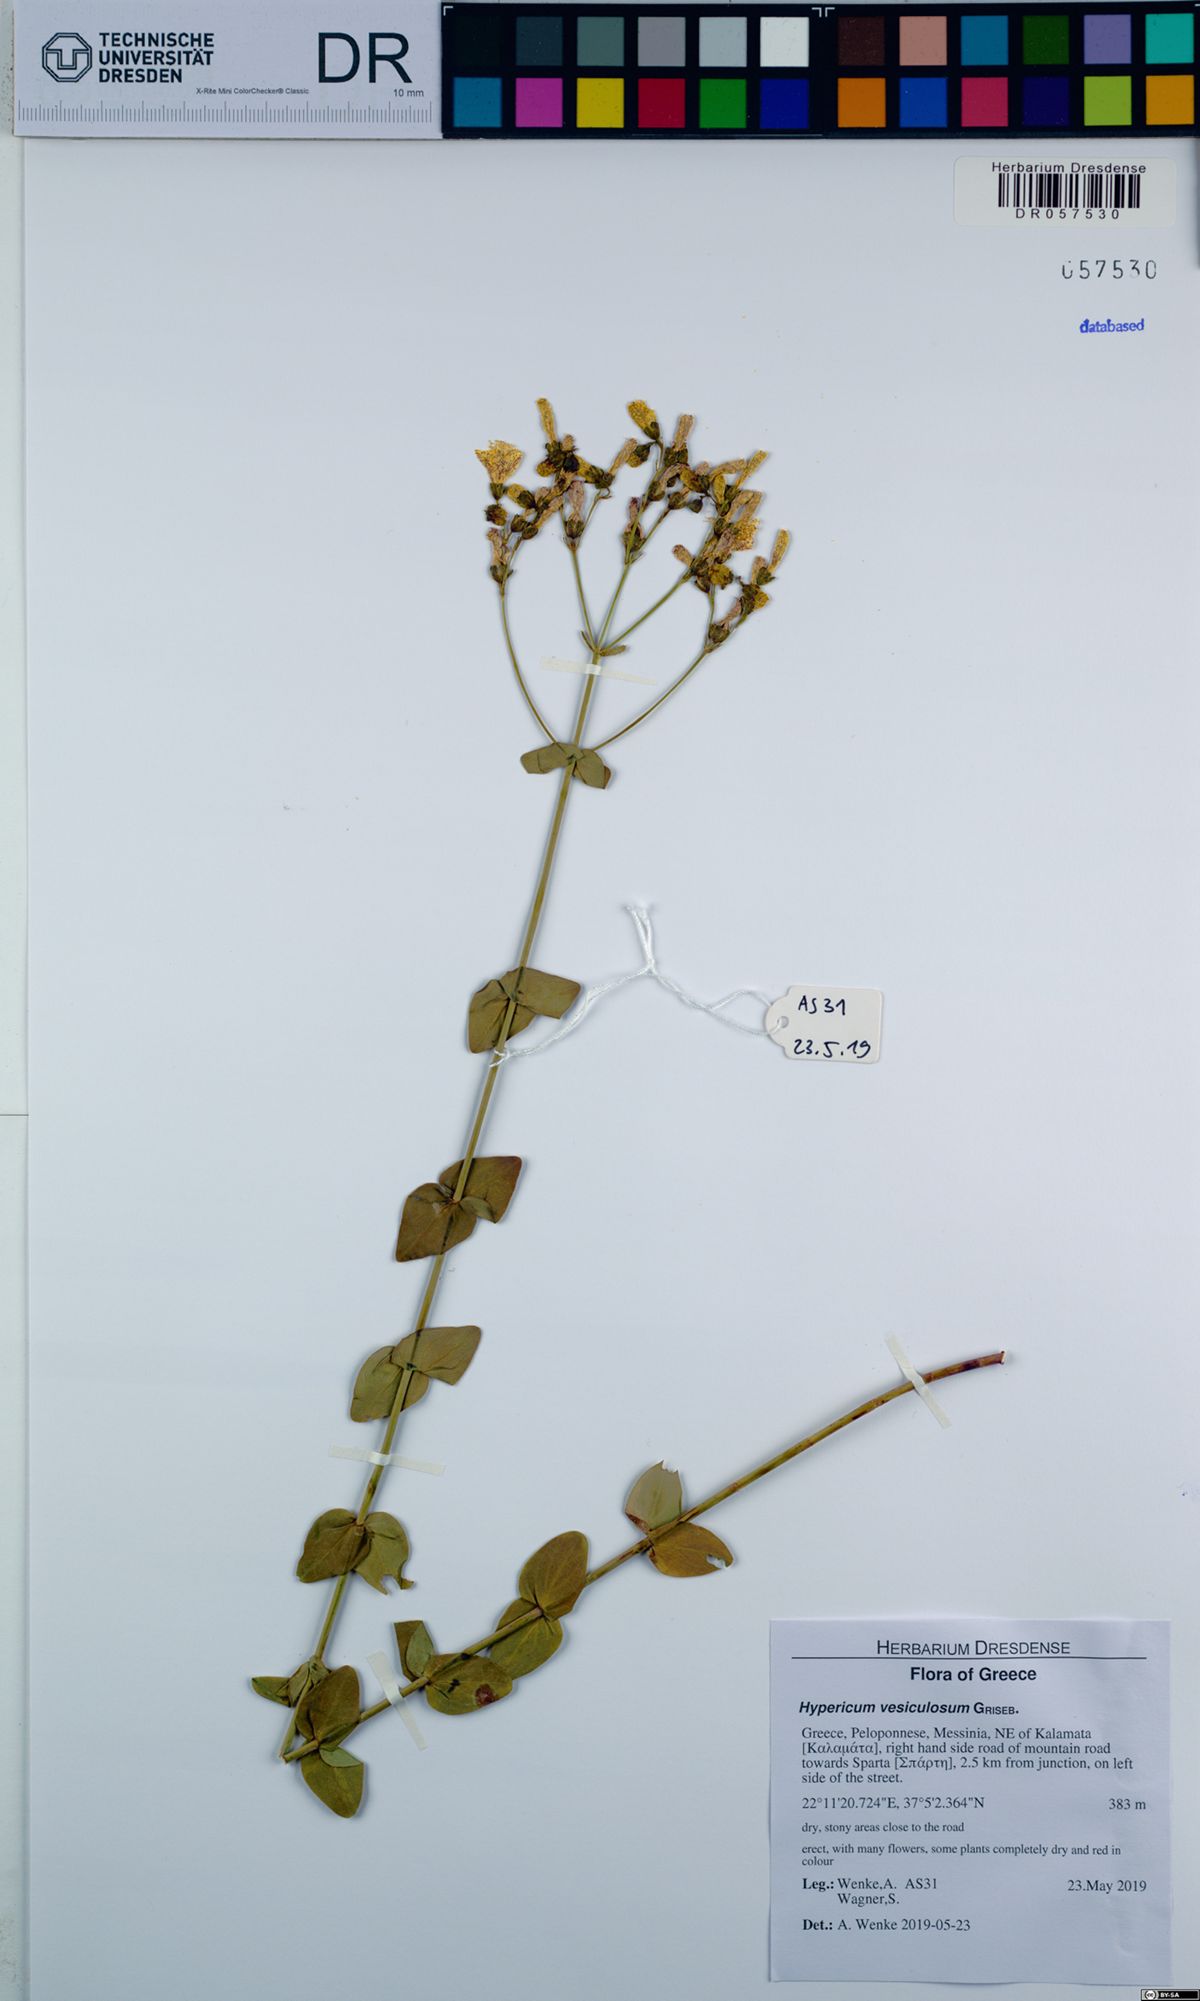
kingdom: Plantae
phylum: Tracheophyta
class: Magnoliopsida
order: Malpighiales
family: Hypericaceae
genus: Hypericum
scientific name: Hypericum vesiculosum
